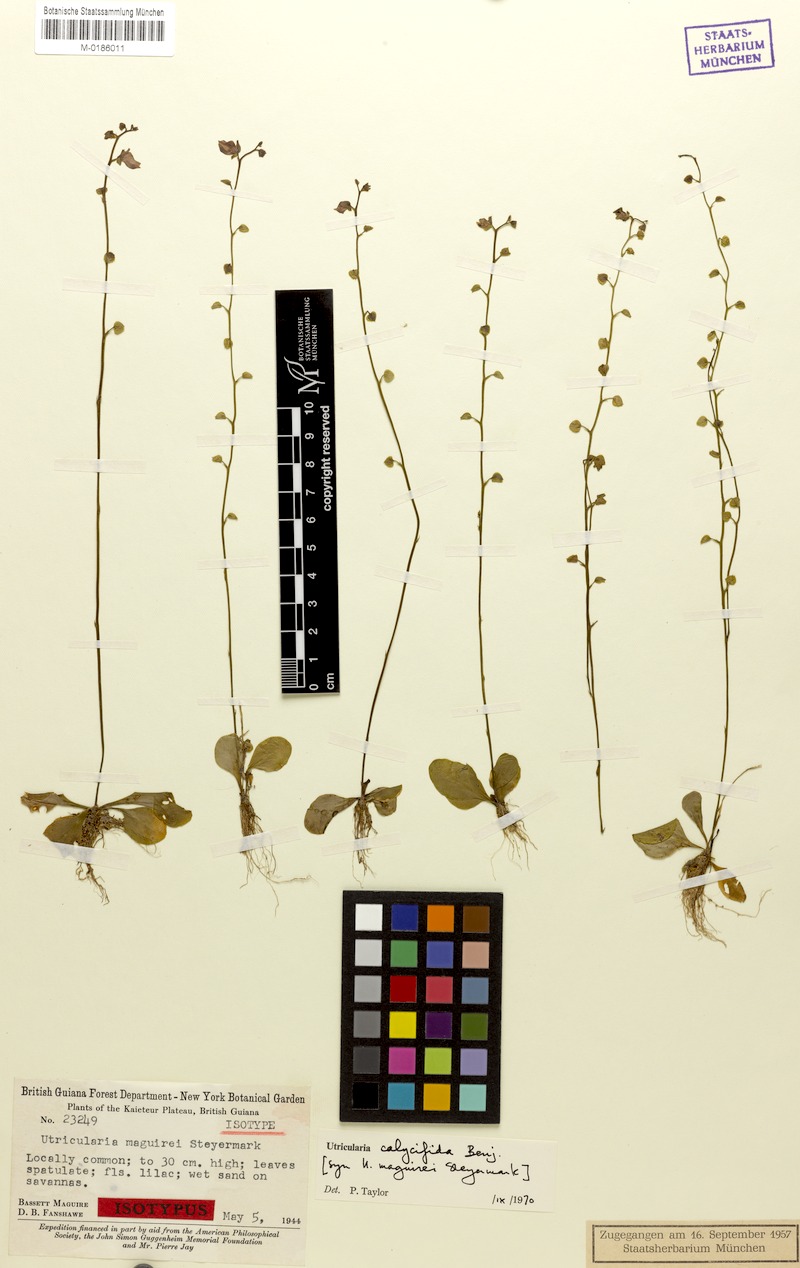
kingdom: Plantae
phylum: Tracheophyta
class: Magnoliopsida
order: Lamiales
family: Lentibulariaceae
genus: Utricularia
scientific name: Utricularia calycifida
